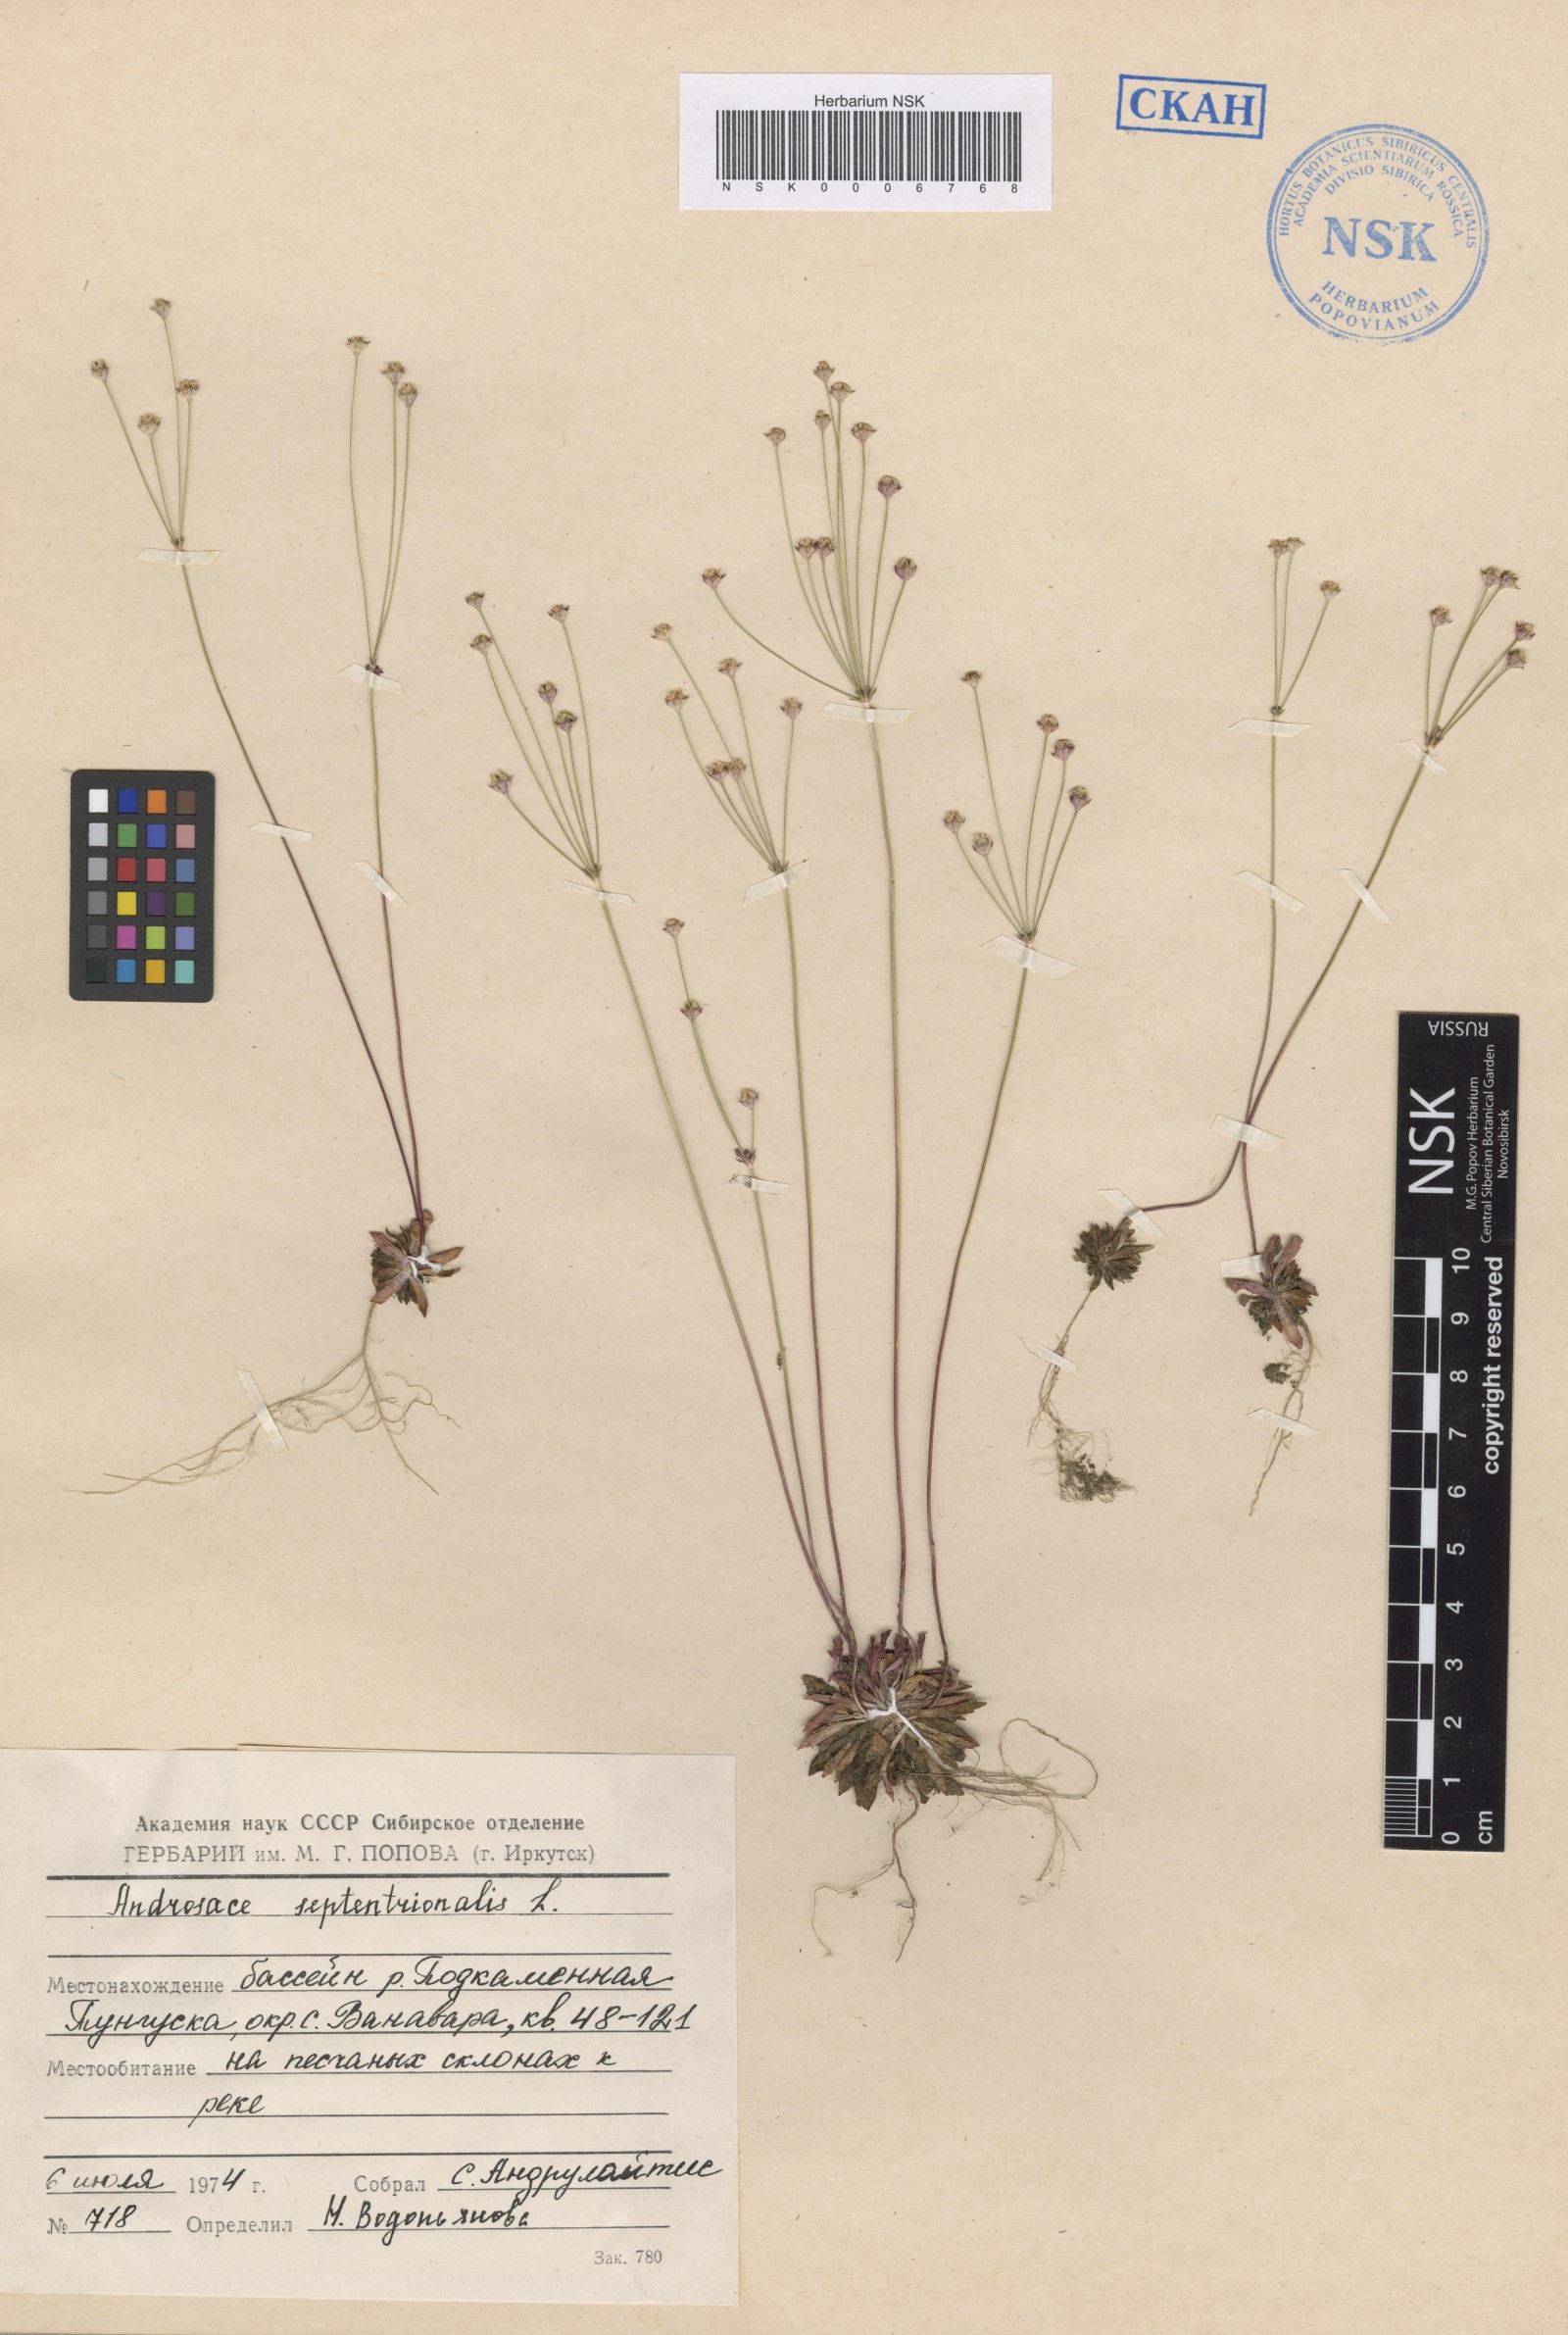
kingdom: Plantae
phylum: Tracheophyta
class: Magnoliopsida
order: Ericales
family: Primulaceae
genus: Androsace
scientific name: Androsace septentrionalis
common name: Hairy northern fairy-candelabra
